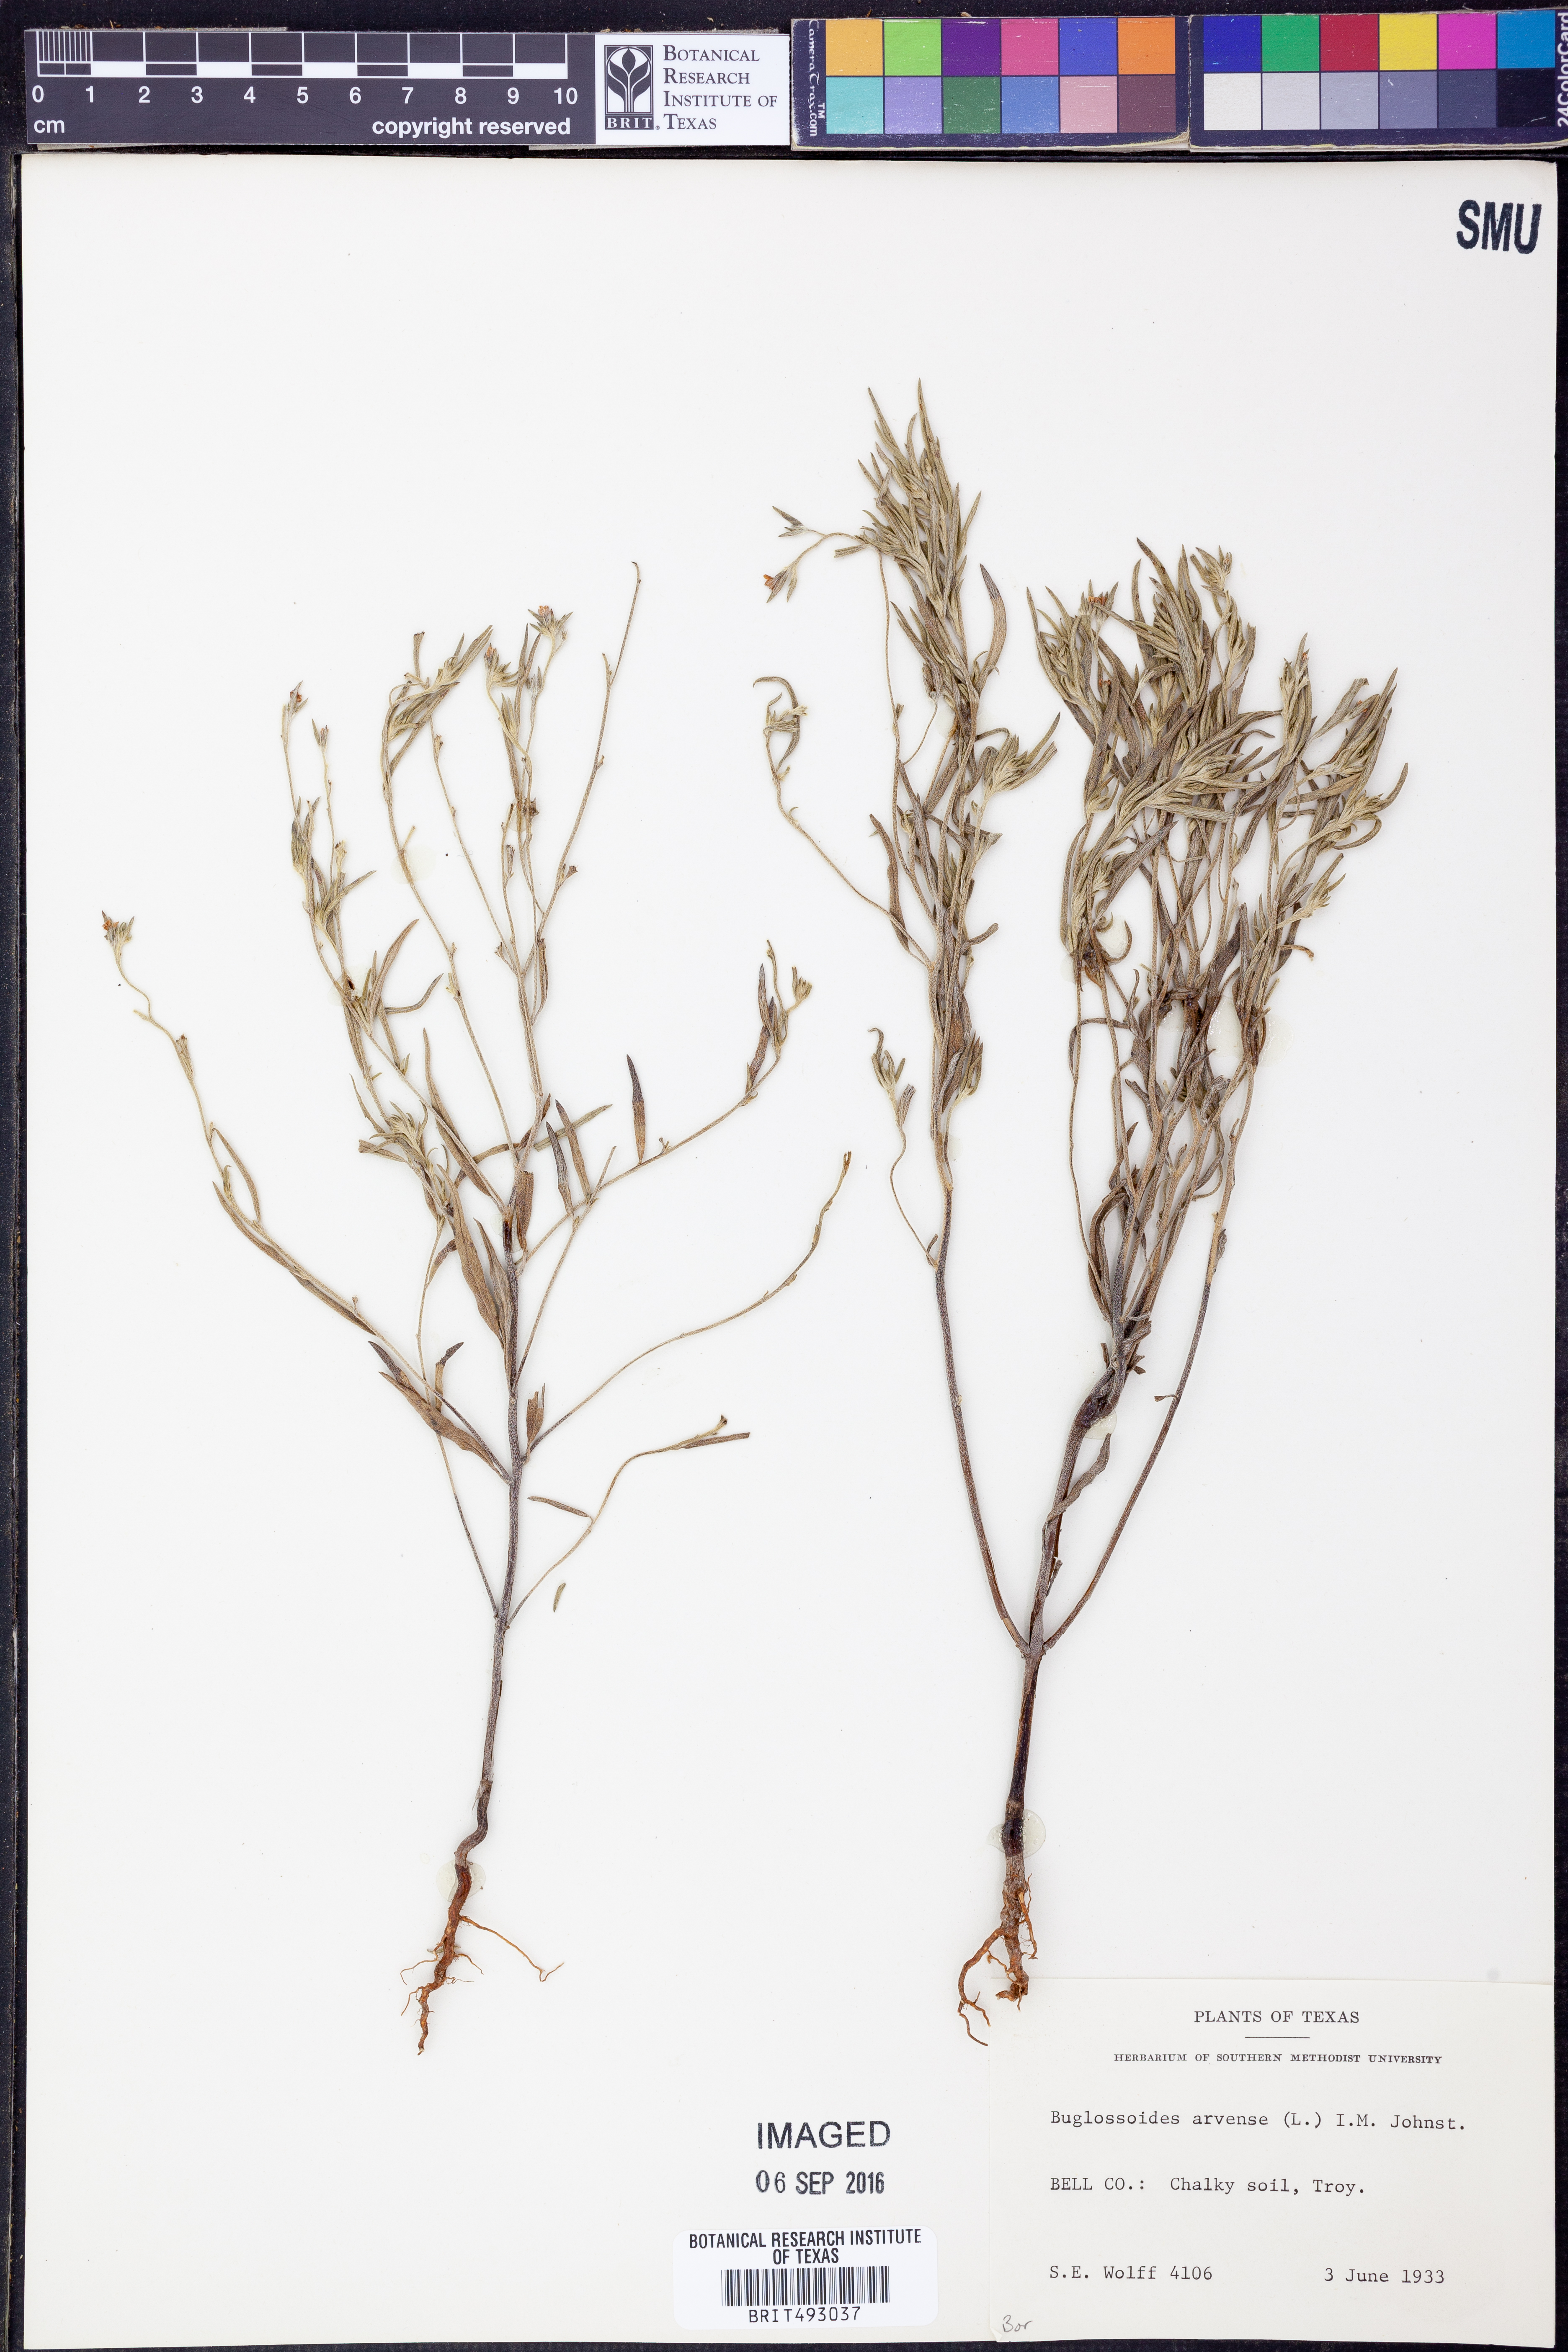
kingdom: Plantae
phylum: Tracheophyta
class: Magnoliopsida
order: Boraginales
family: Boraginaceae
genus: Buglossoides
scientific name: Buglossoides arvensis
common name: Corn gromwell
